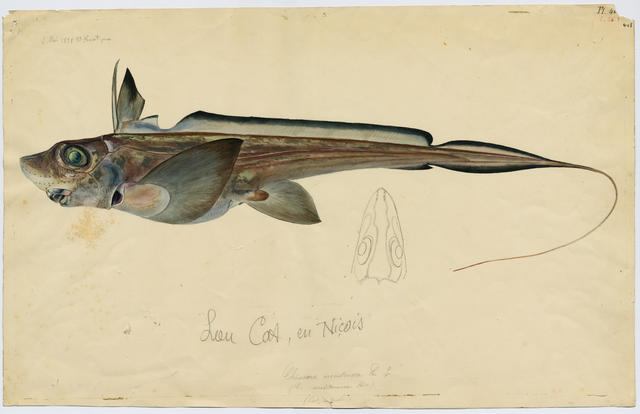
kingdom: Animalia
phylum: Chordata
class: Holocephali
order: Chimaeriformes
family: Chimaeridae
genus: Chimaera
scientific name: Chimaera monstrosa
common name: Rabbitfish
